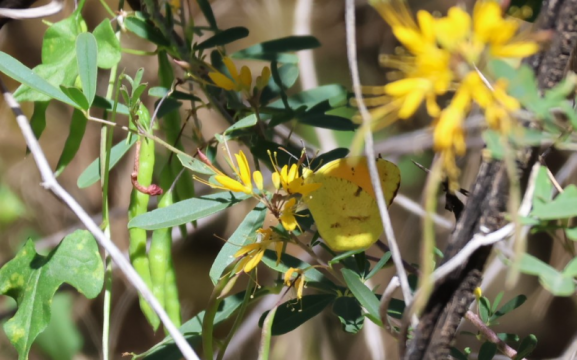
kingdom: Animalia
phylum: Arthropoda
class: Insecta
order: Lepidoptera
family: Pieridae
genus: Abaeis
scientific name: Abaeis nicippe
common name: Sleepy Orange
